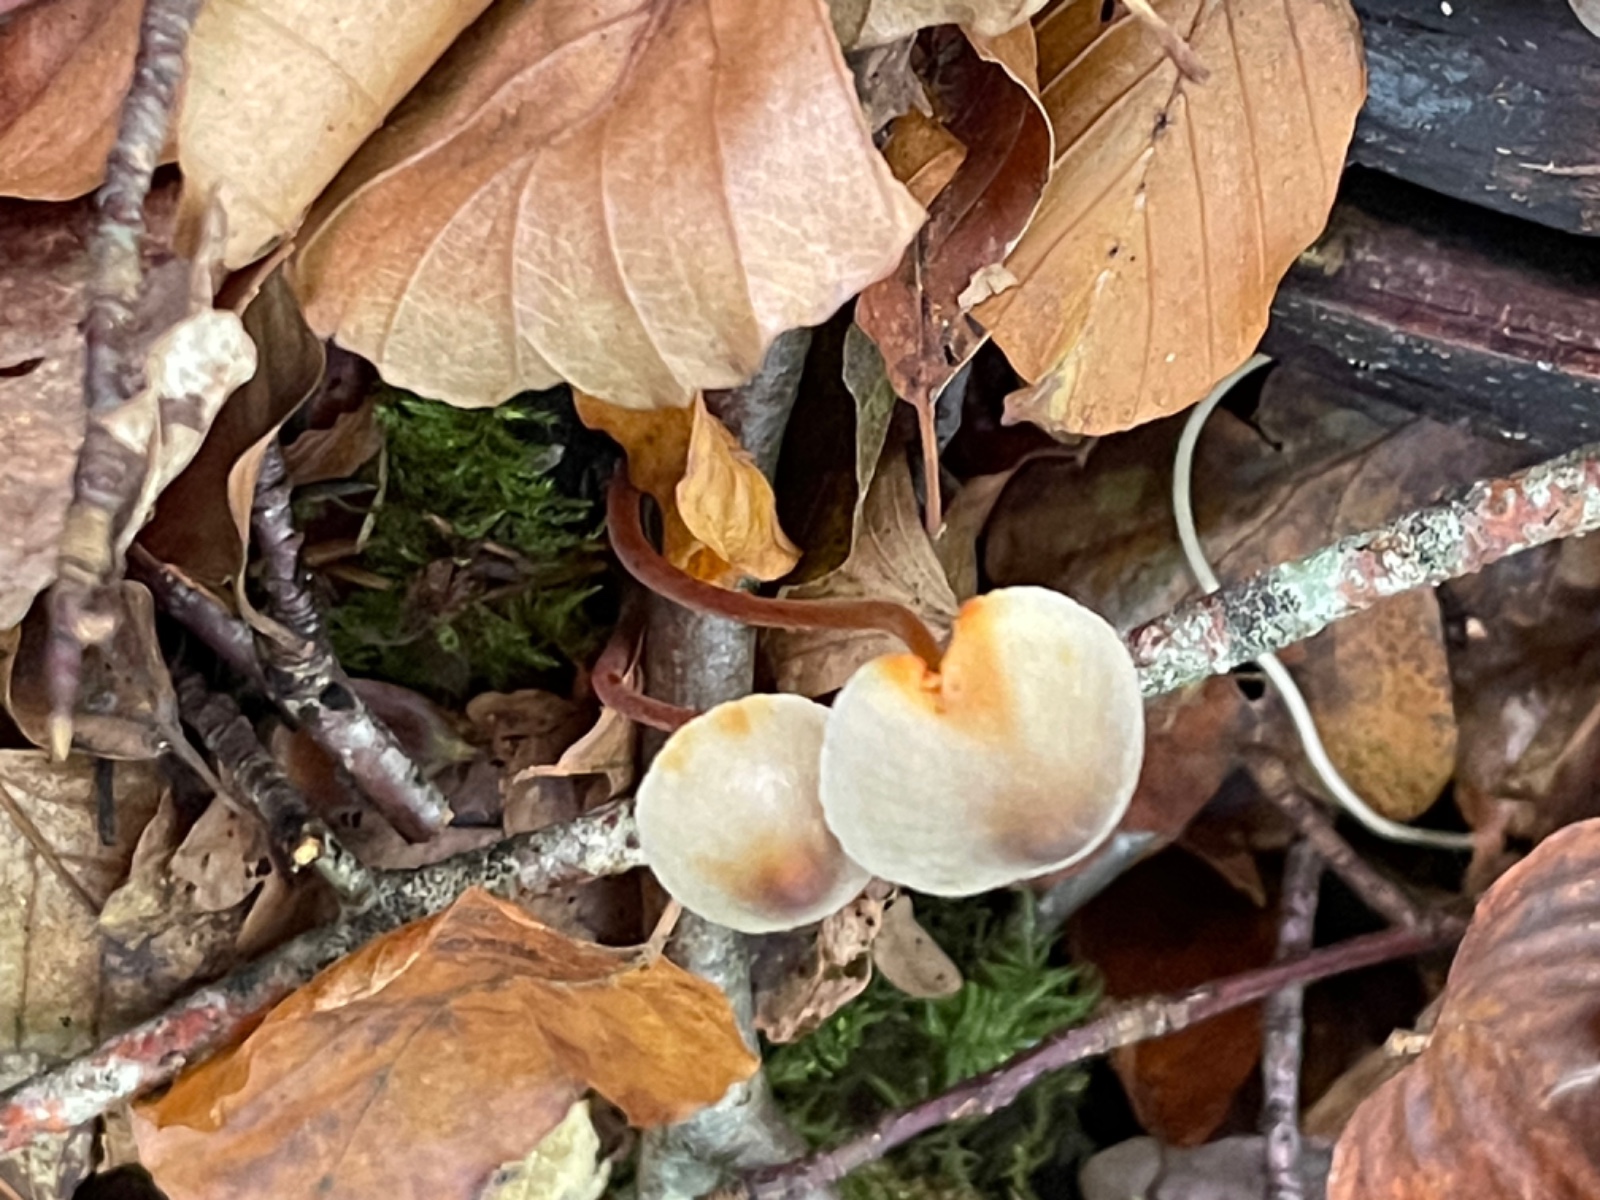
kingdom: Fungi
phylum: Basidiomycota
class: Agaricomycetes
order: Agaricales
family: Mycenaceae
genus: Mycena
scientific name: Mycena crocata
